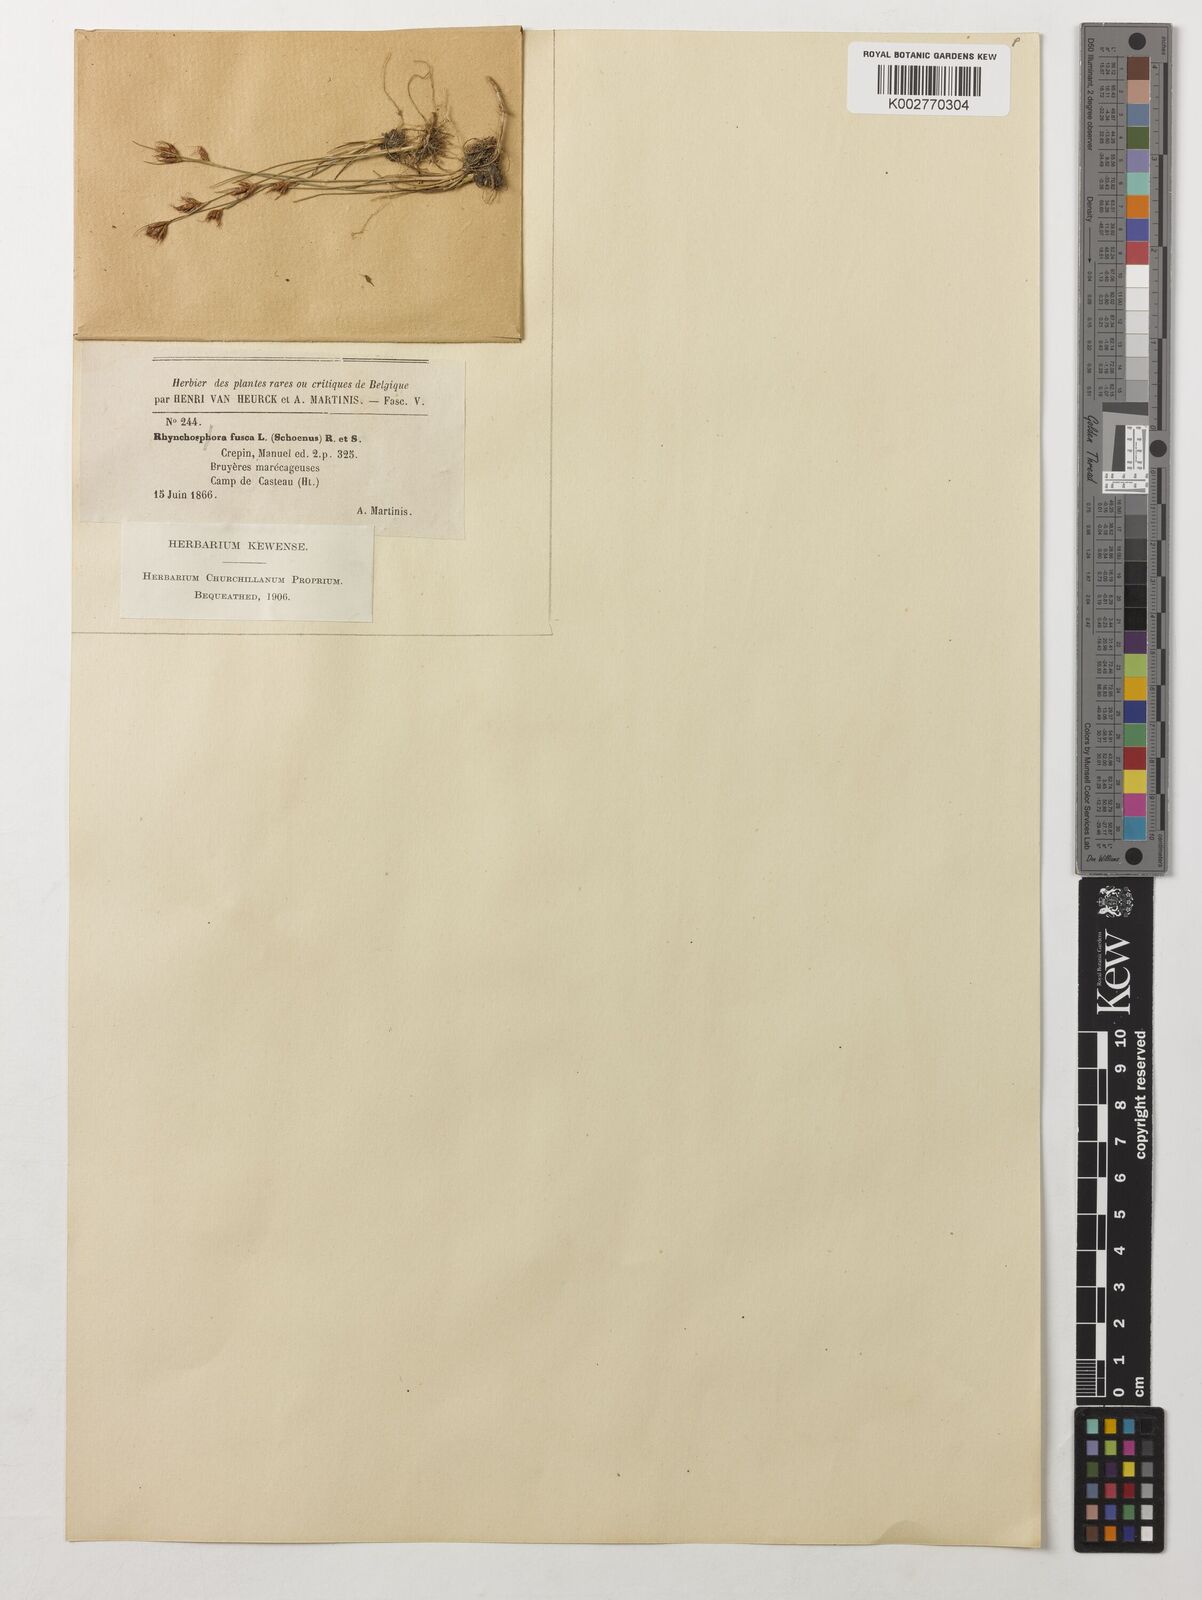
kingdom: Plantae
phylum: Tracheophyta
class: Liliopsida
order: Poales
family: Cyperaceae
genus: Rhynchospora
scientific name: Rhynchospora fusca
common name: Brown beak-sedge
